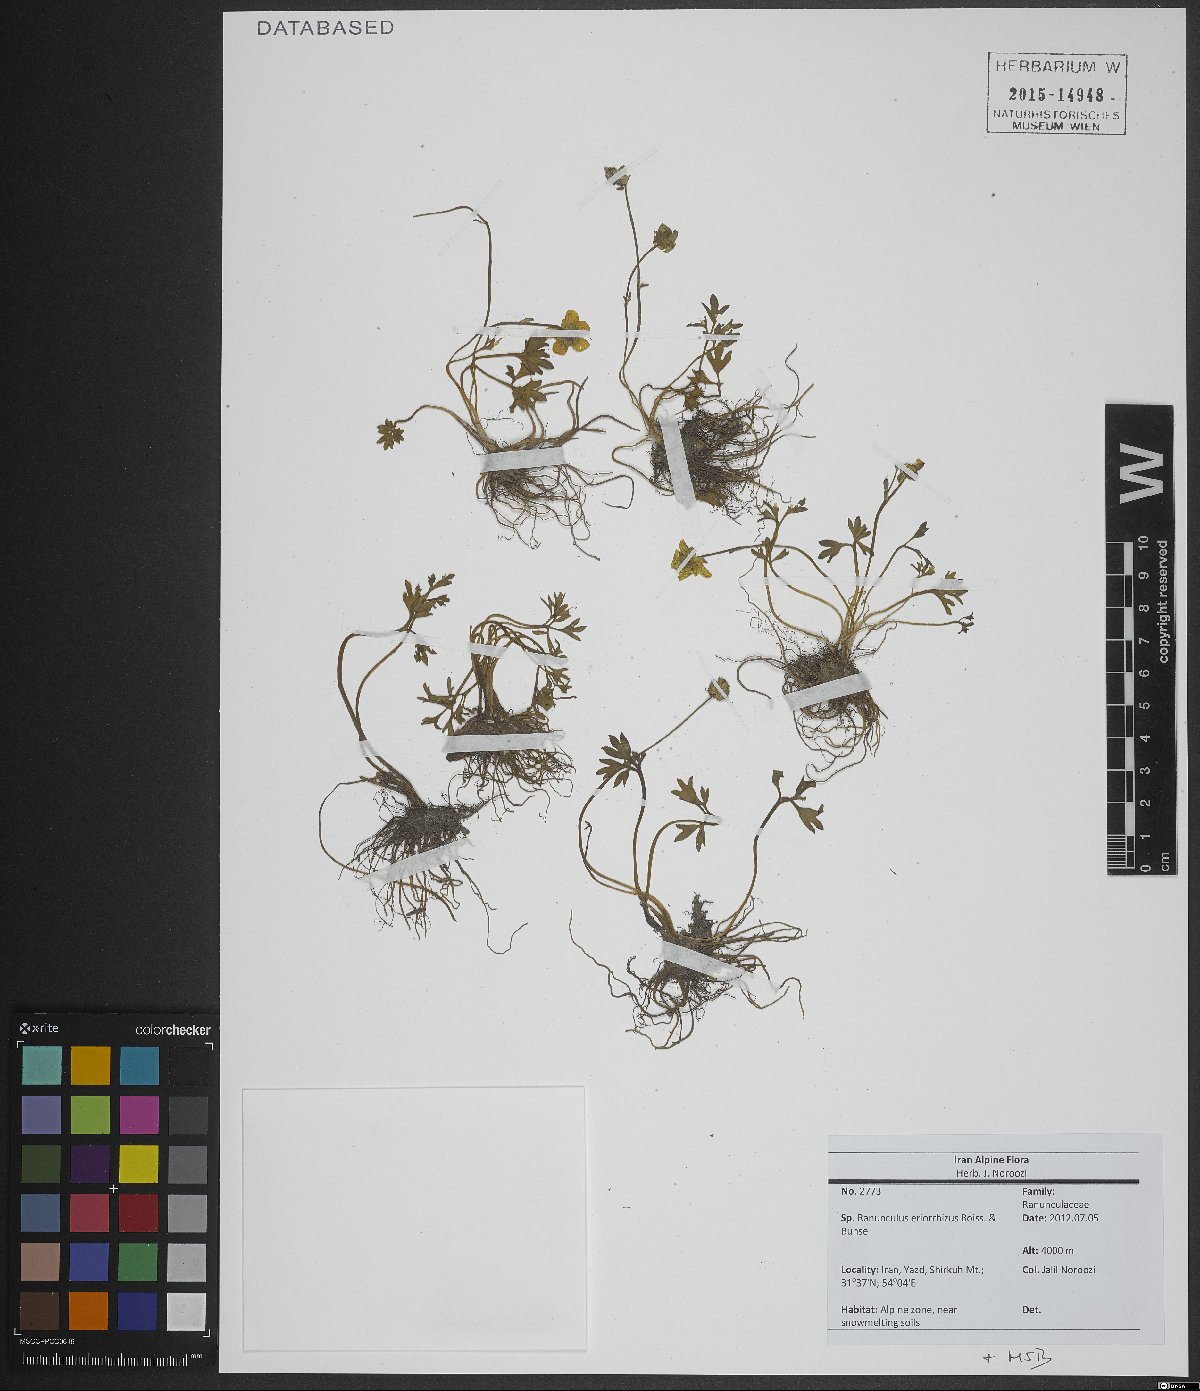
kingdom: Plantae
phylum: Tracheophyta
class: Magnoliopsida
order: Ranunculales
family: Ranunculaceae
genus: Ranunculus
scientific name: Ranunculus eriorrhizus
